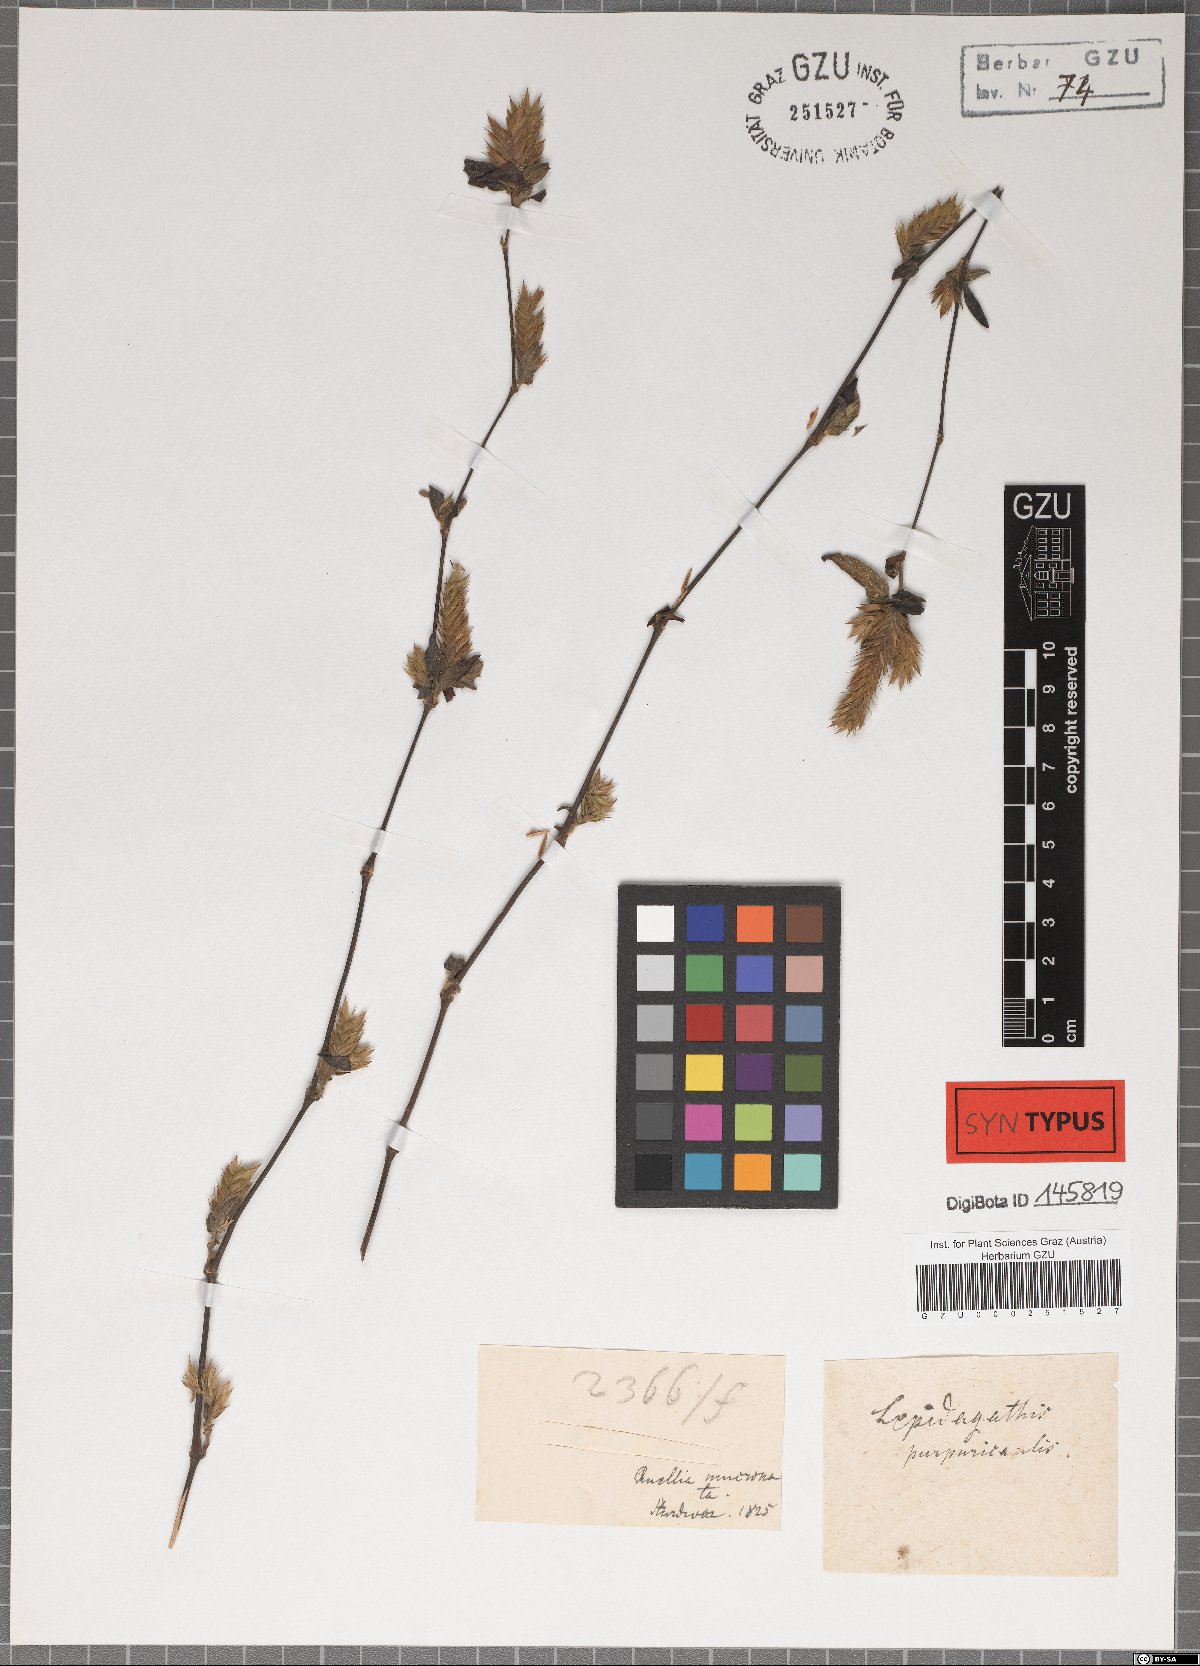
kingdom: Plantae
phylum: Tracheophyta
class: Magnoliopsida
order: Lamiales
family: Acanthaceae
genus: Lepidagathis
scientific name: Lepidagathis purpuricaulis
